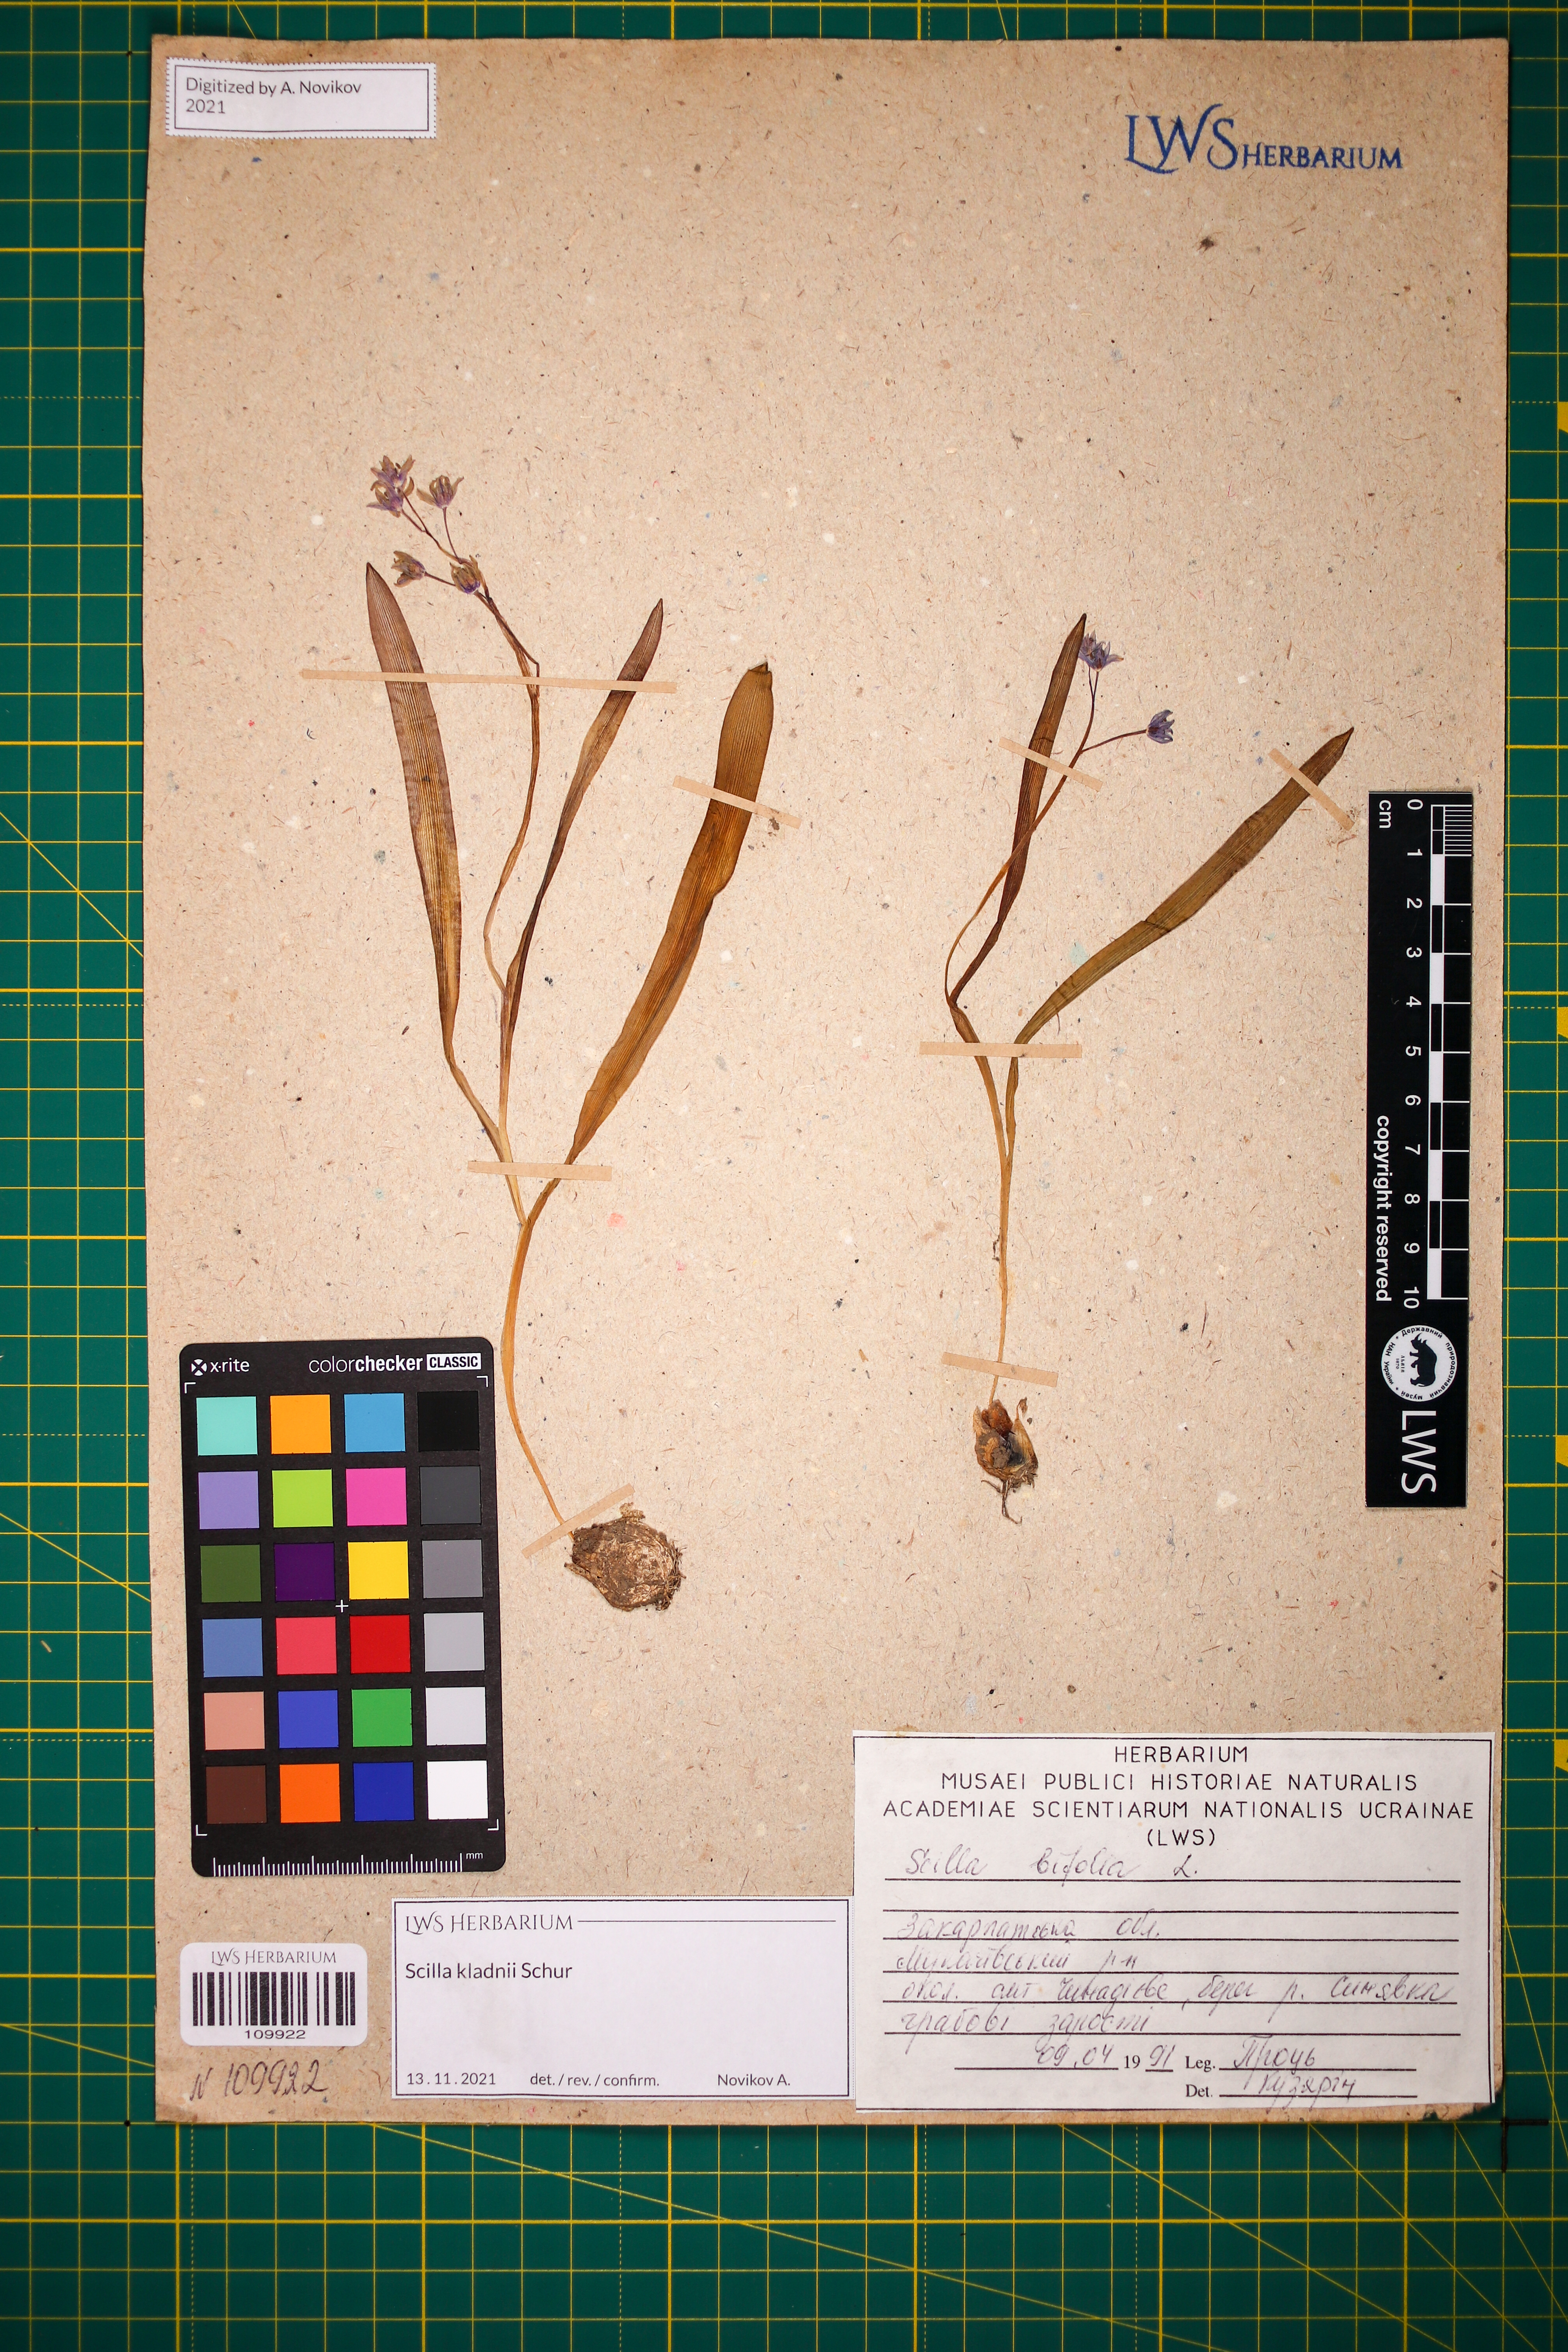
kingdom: Plantae
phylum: Tracheophyta
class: Liliopsida
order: Asparagales
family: Asparagaceae
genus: Scilla
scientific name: Scilla kladnii
